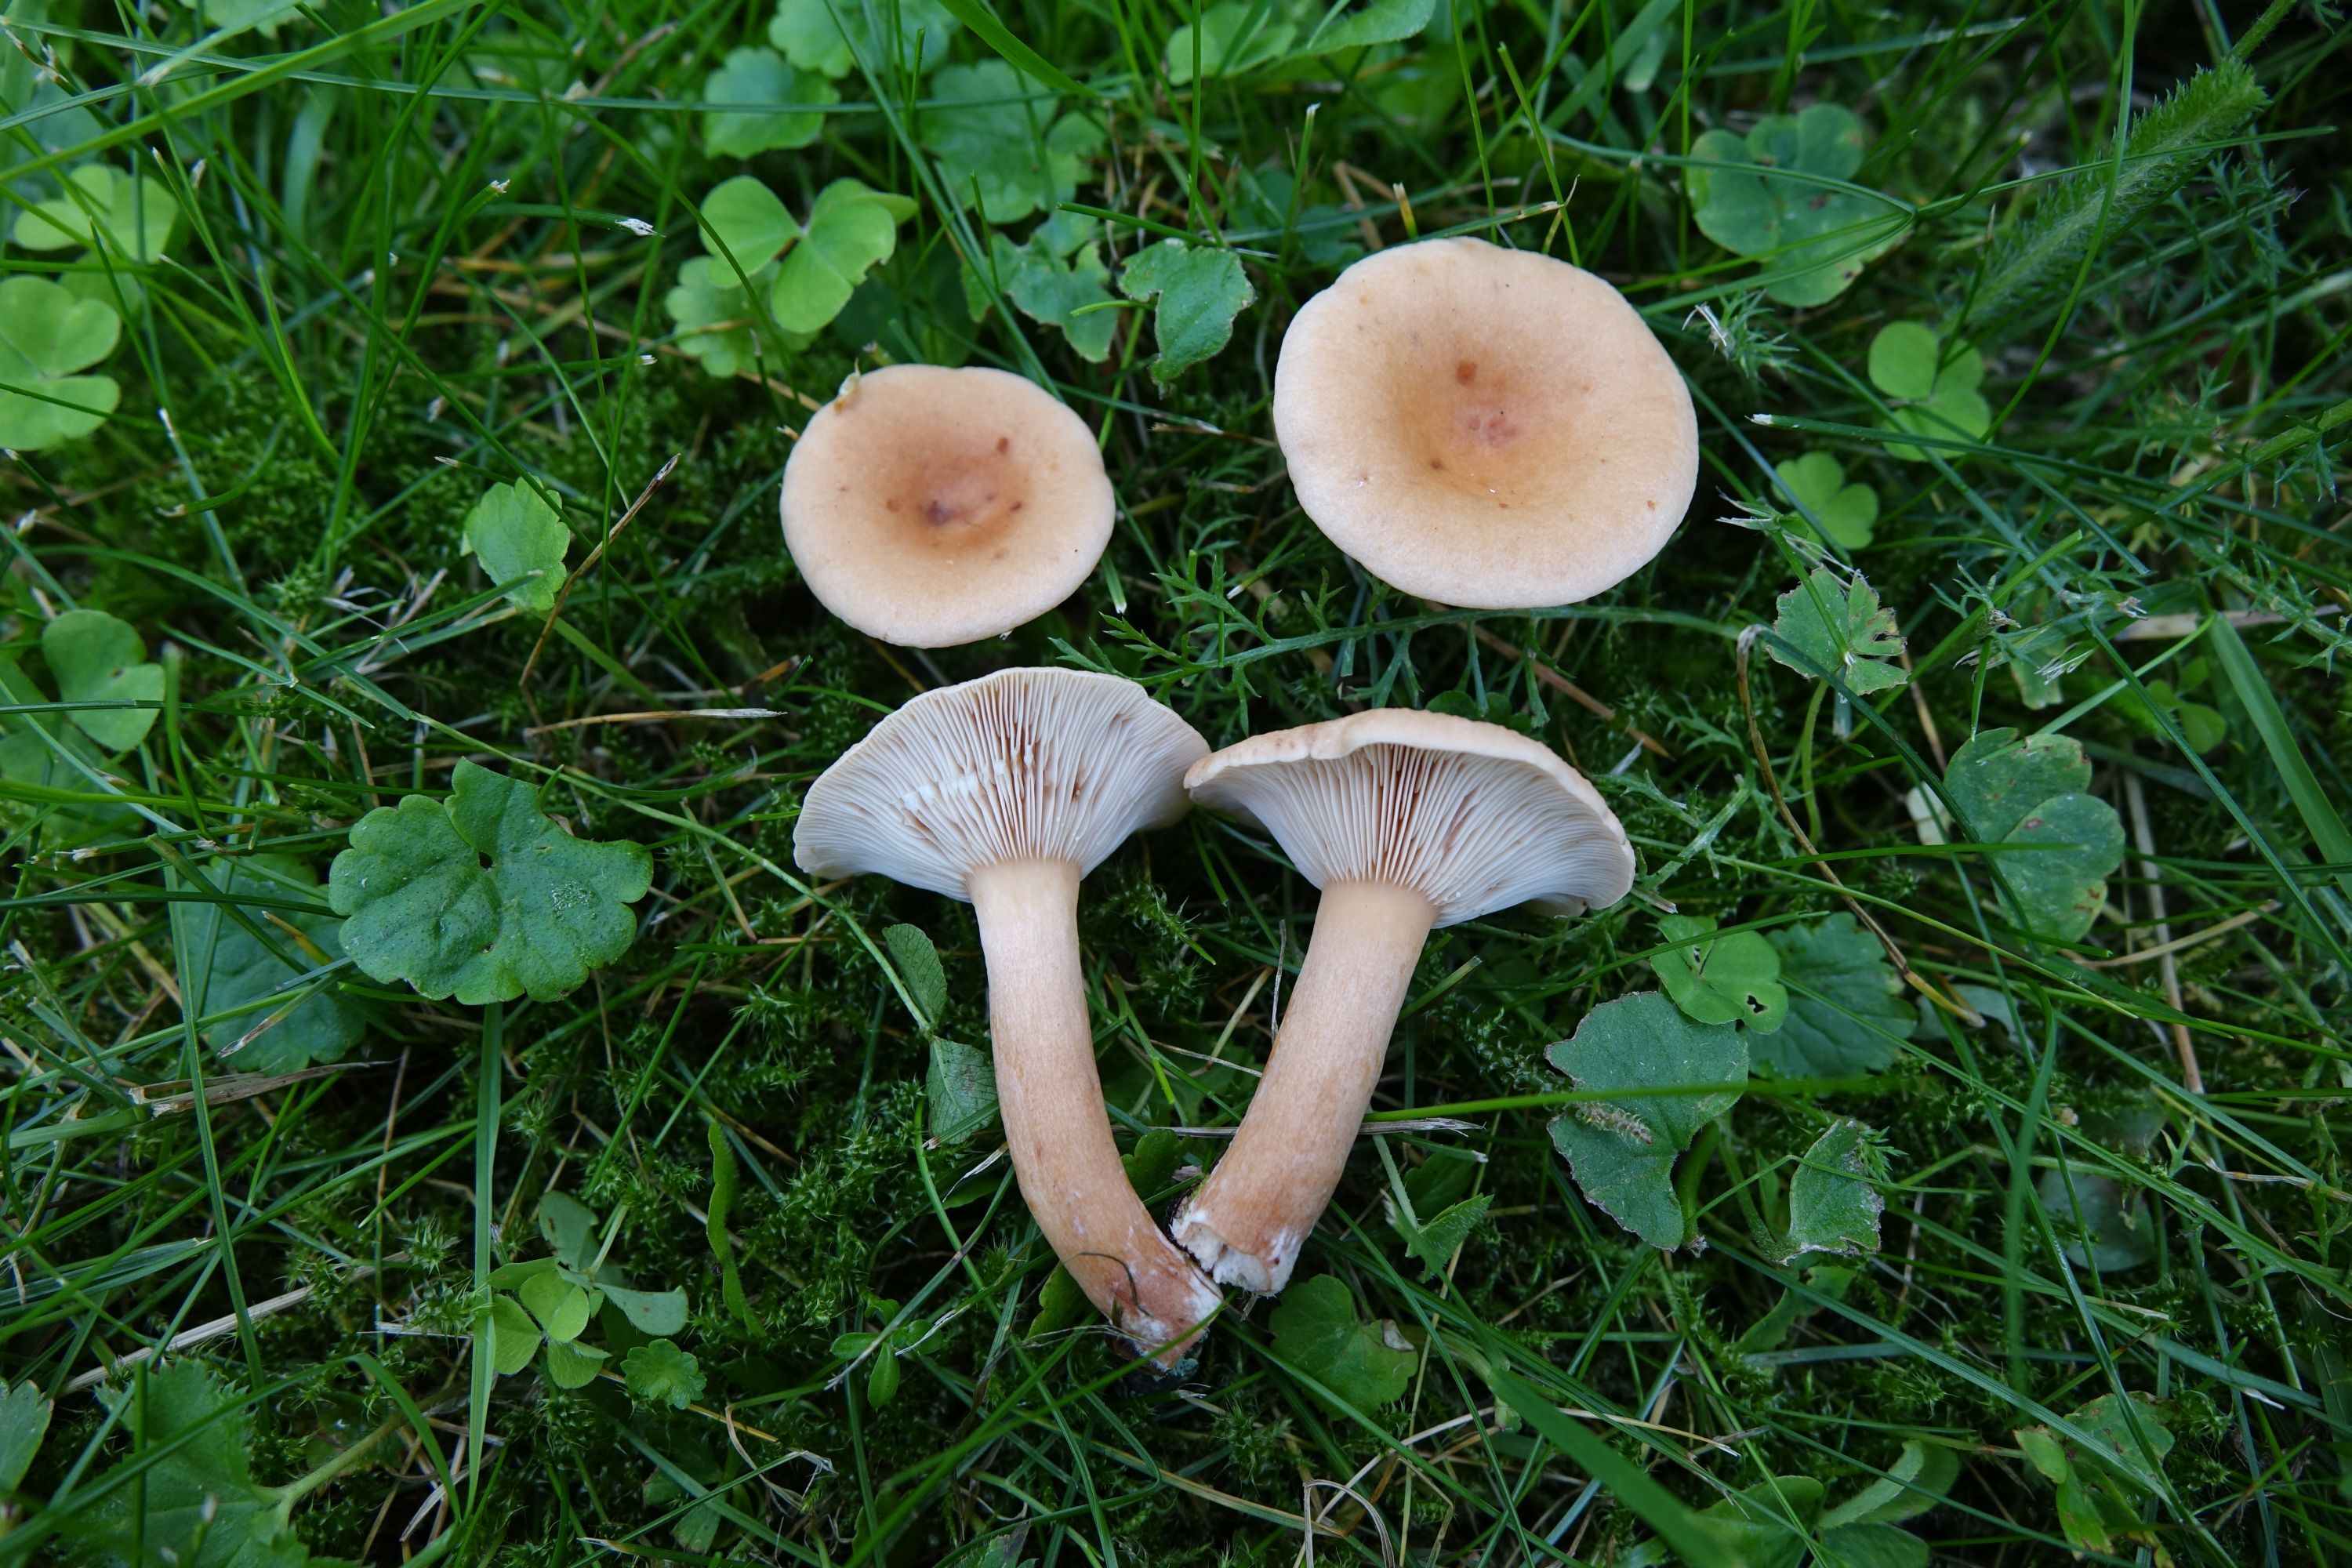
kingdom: Fungi
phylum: Basidiomycota
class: Agaricomycetes
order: Russulales
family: Russulaceae
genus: Lactarius
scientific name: Lactarius tabidus
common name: Birch milkcap
